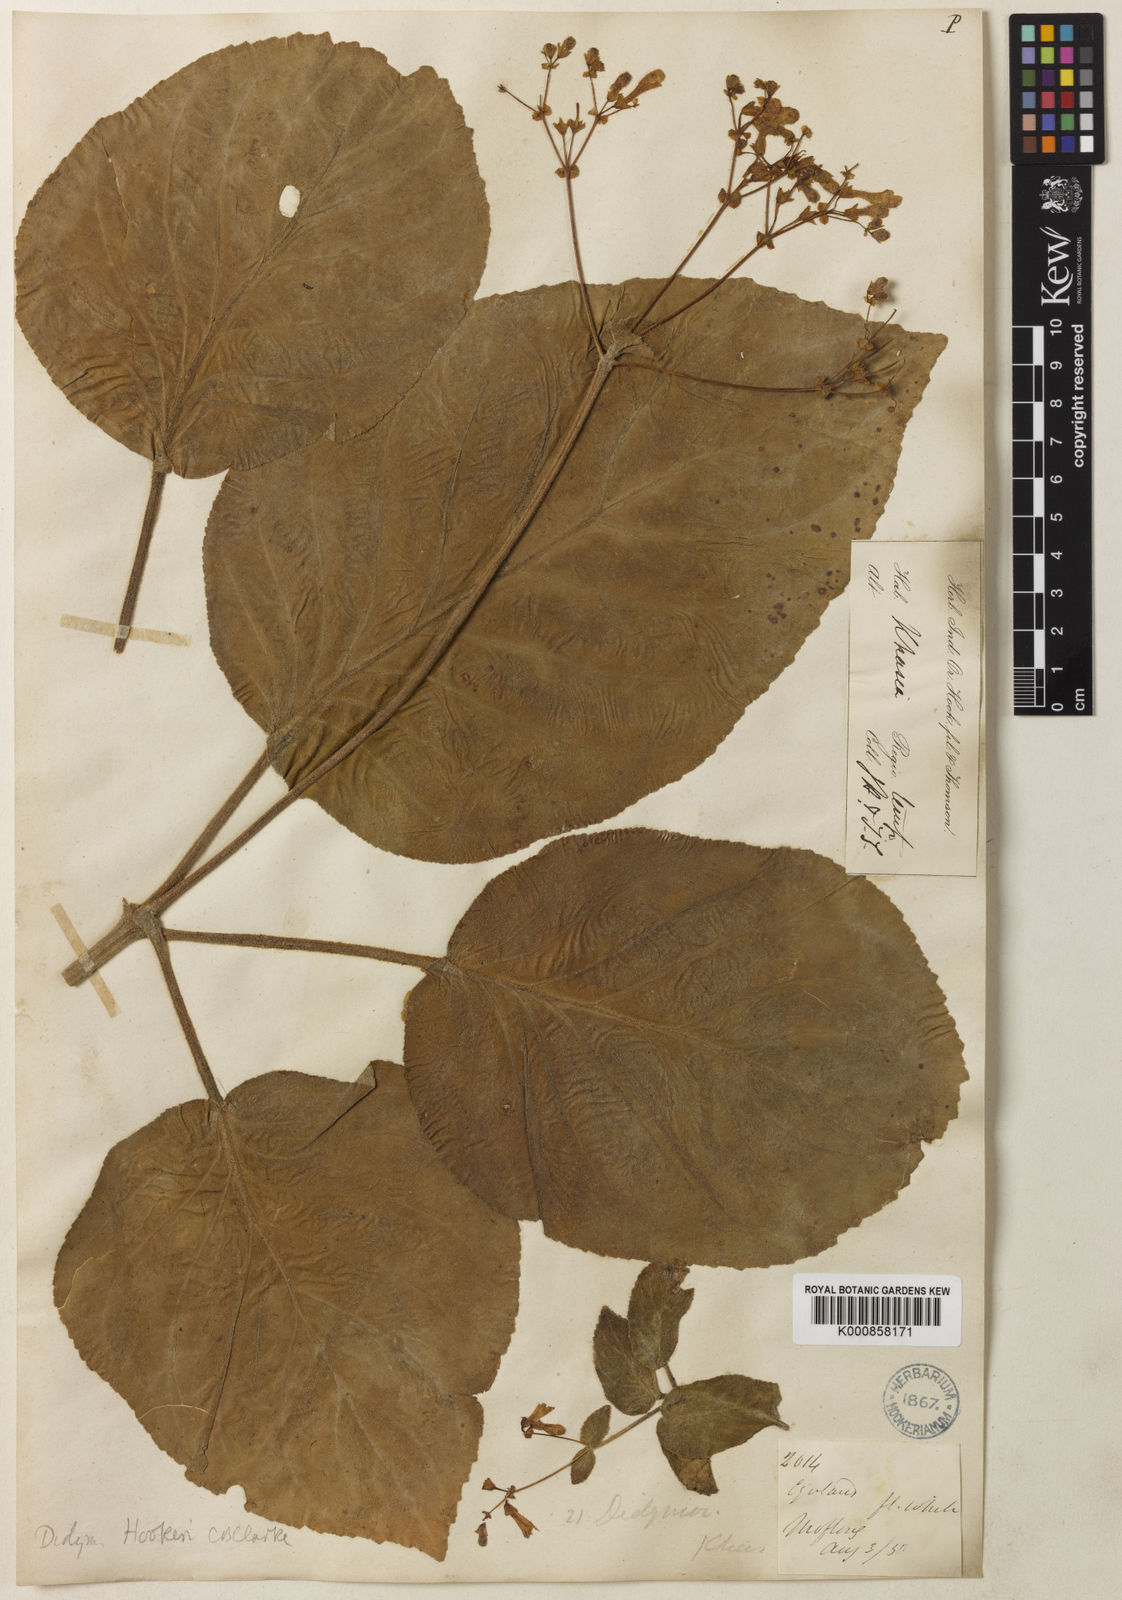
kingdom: Plantae
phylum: Tracheophyta
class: Magnoliopsida
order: Lamiales
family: Gesneriaceae
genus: Henckelia
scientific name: Henckelia
